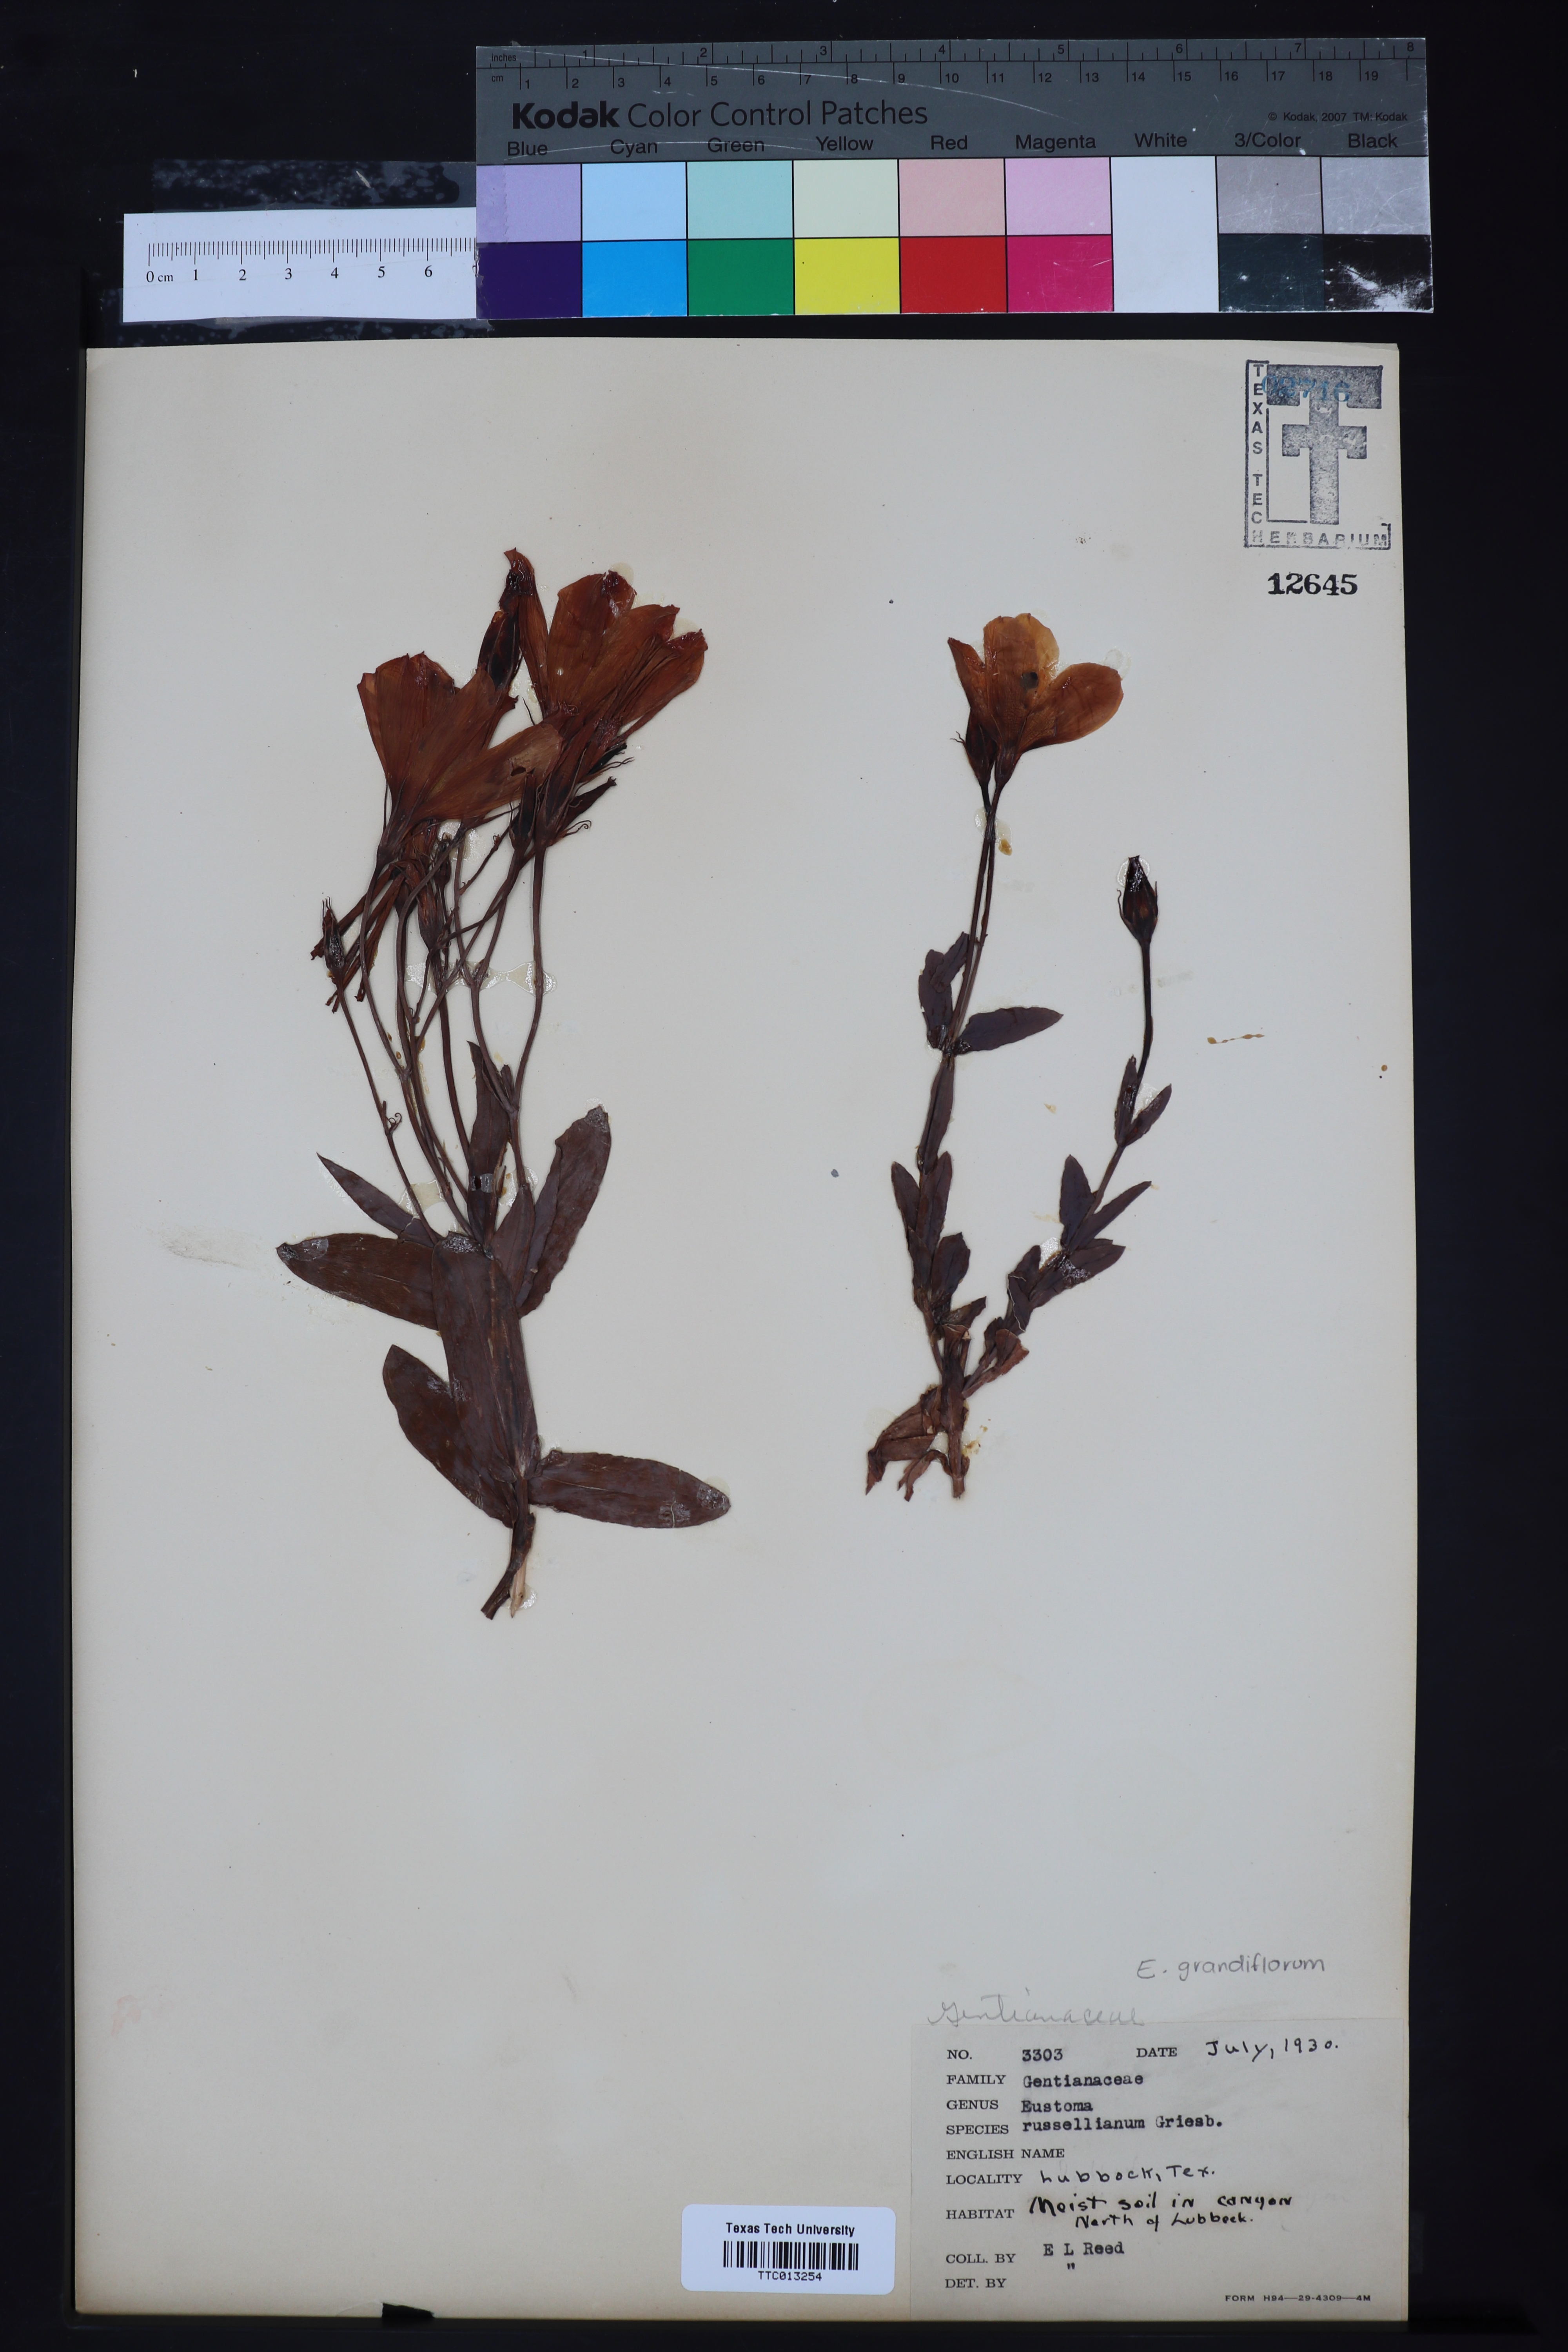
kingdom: Plantae
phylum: Tracheophyta
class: Magnoliopsida
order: Gentianales
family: Gentianaceae
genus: Eustoma
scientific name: Eustoma russellianum
